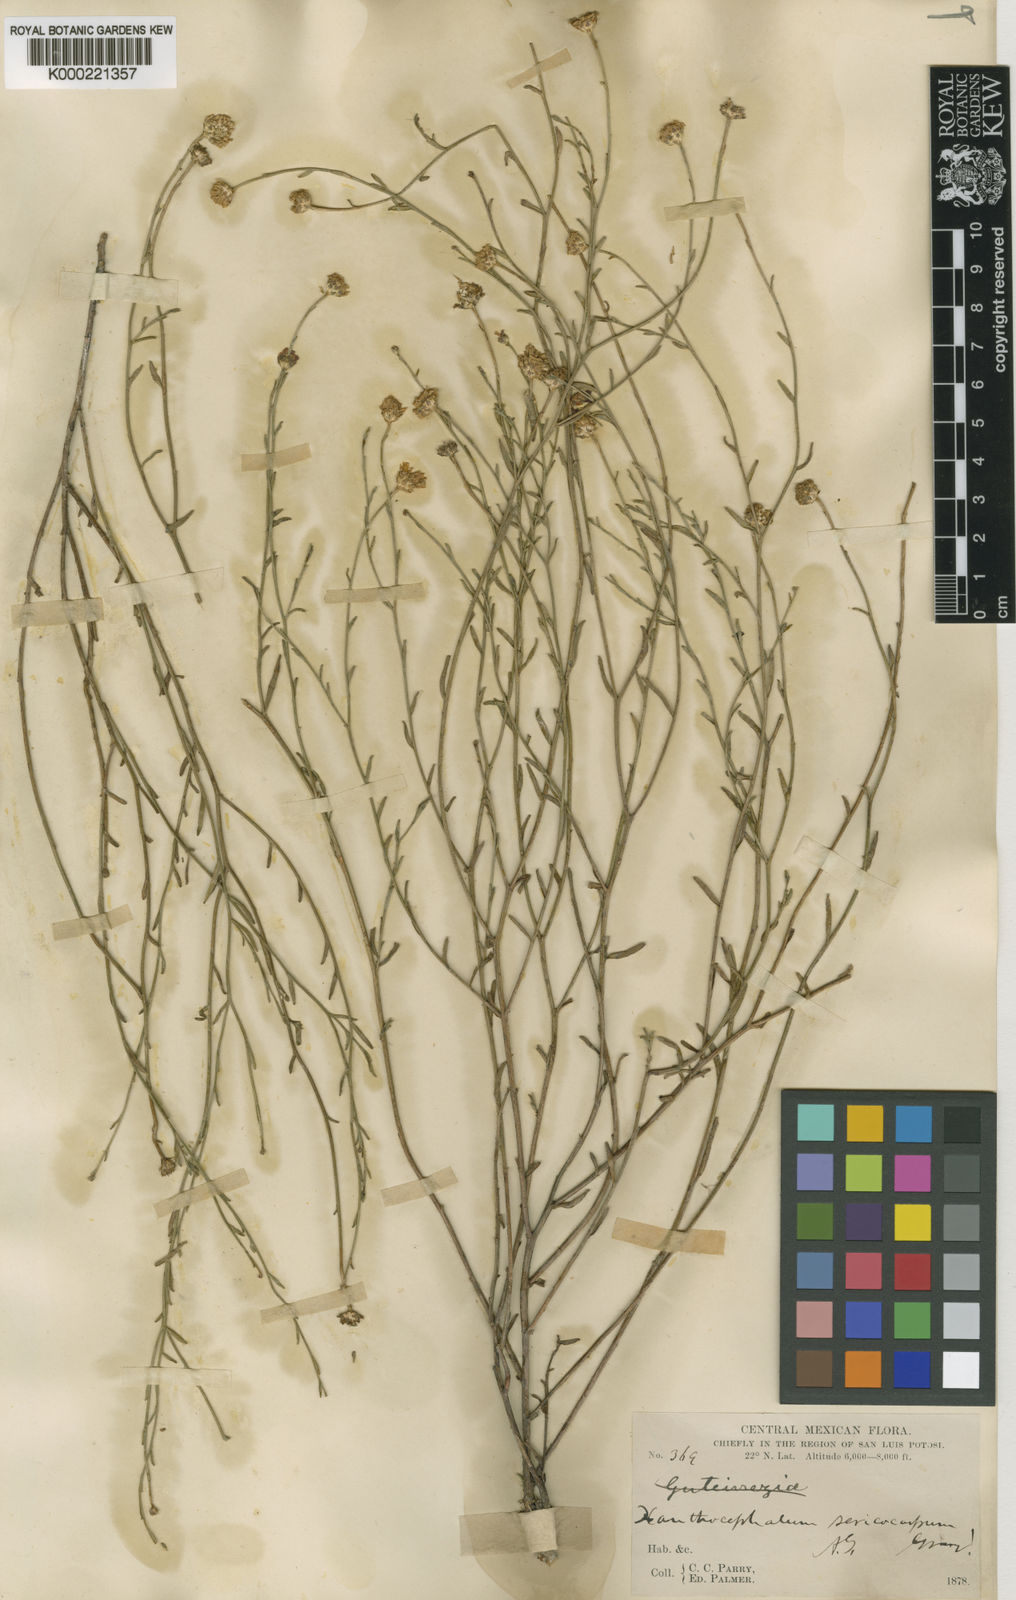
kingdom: Plantae
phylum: Tracheophyta
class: Magnoliopsida
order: Asterales
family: Asteraceae
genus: Gutierrezia
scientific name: Gutierrezia sericocarpa
